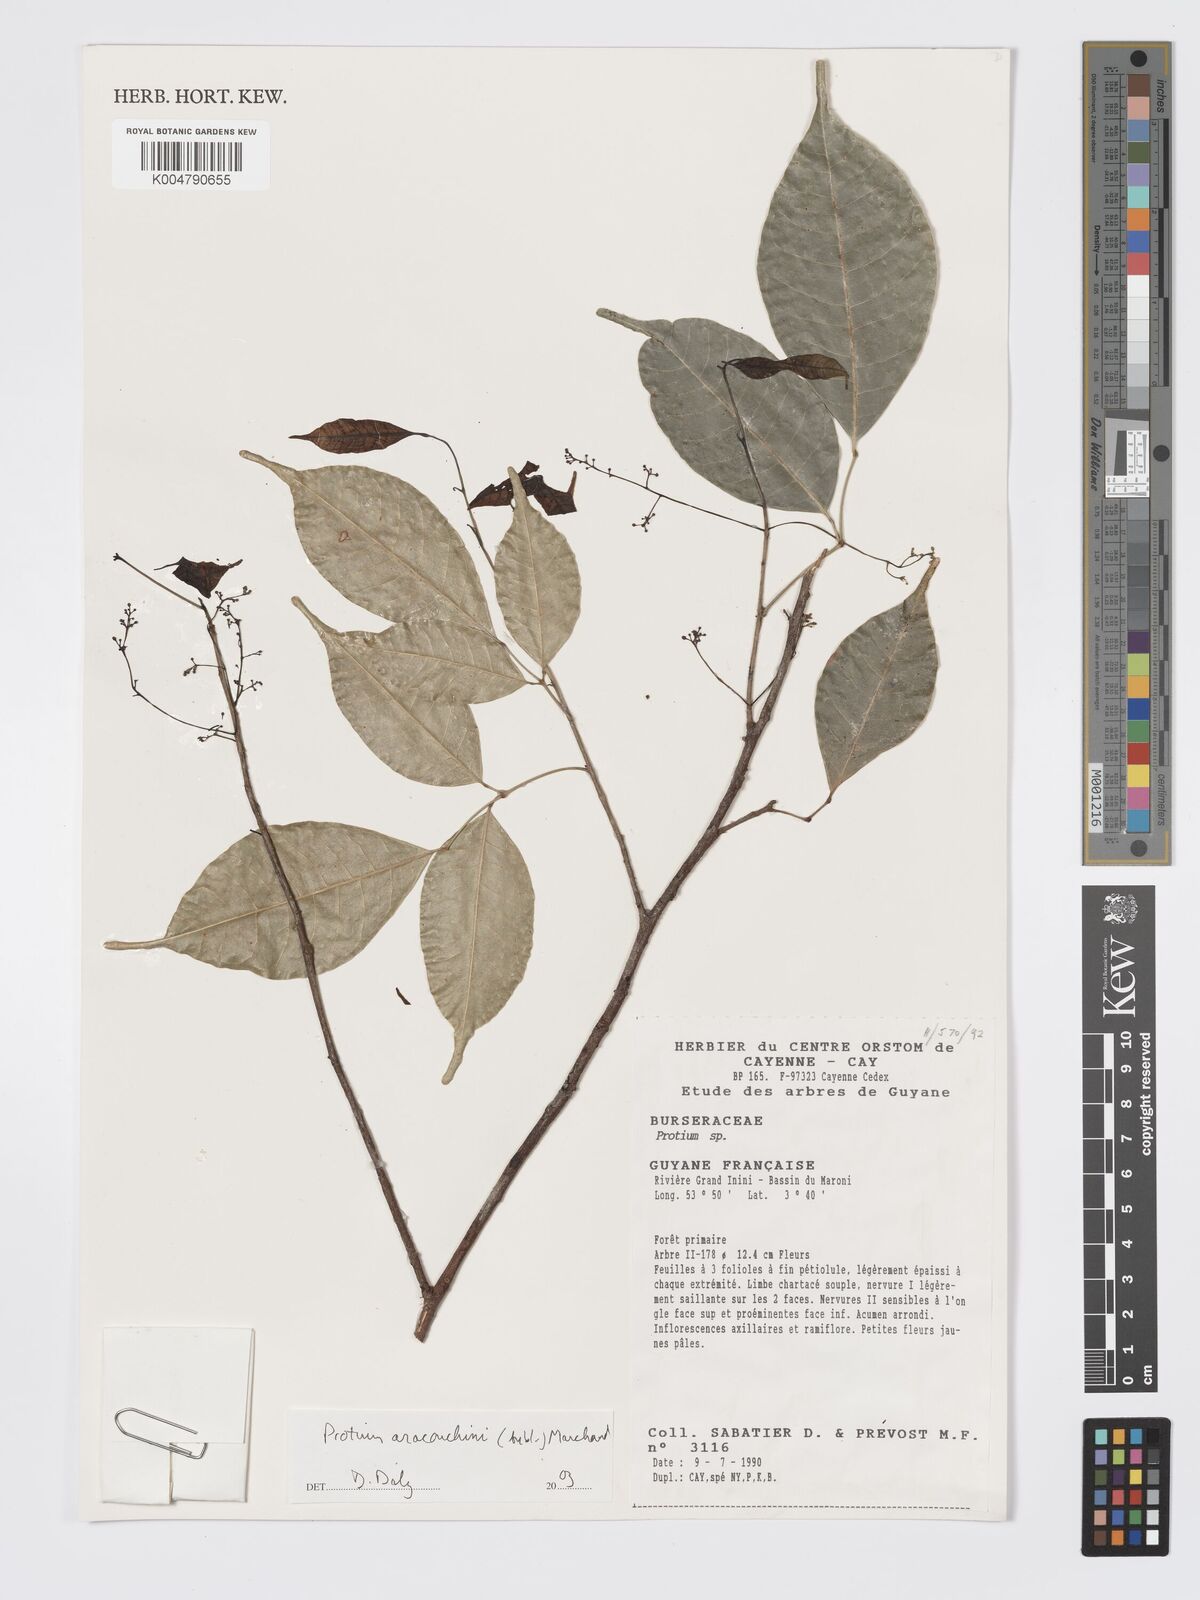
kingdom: Plantae
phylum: Tracheophyta
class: Magnoliopsida
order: Sapindales
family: Burseraceae
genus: Protium
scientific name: Protium aracouchini
